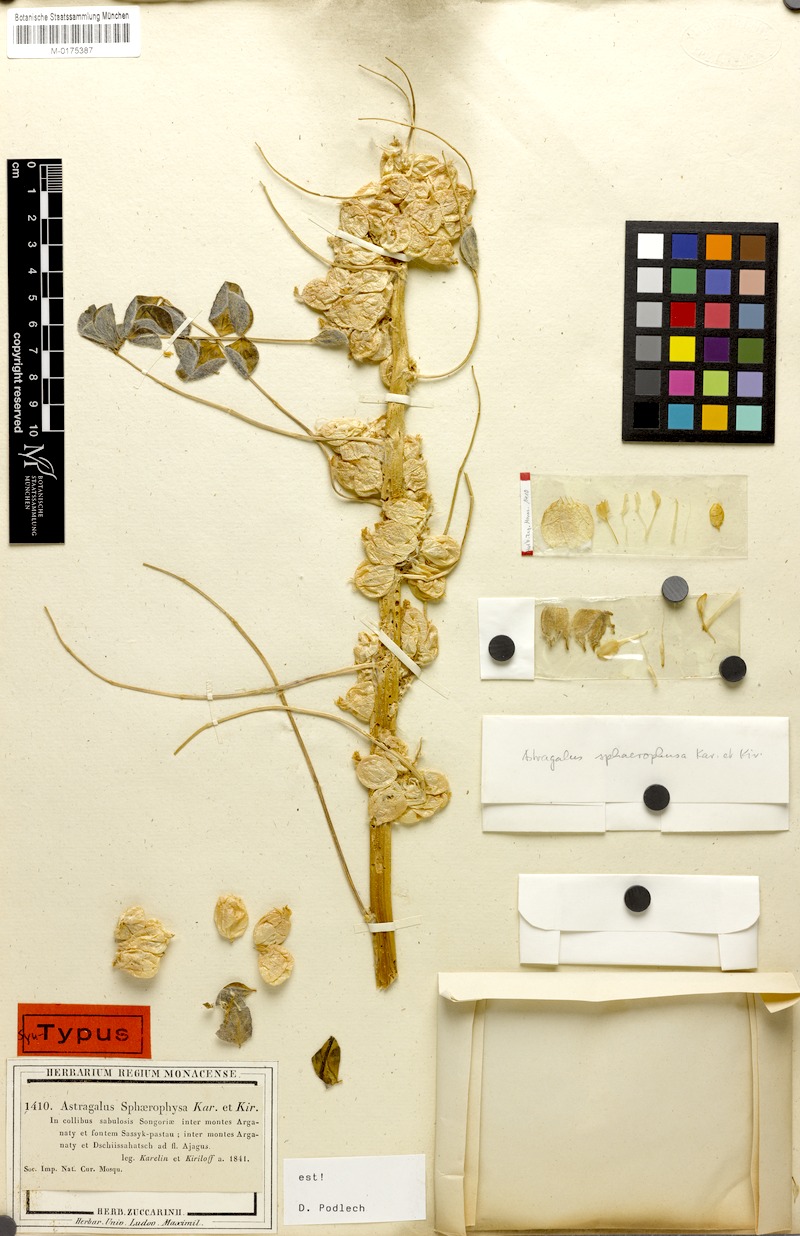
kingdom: Plantae
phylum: Tracheophyta
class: Magnoliopsida
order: Fabales
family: Fabaceae
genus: Astragalus
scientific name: Astragalus sphaerophysa
